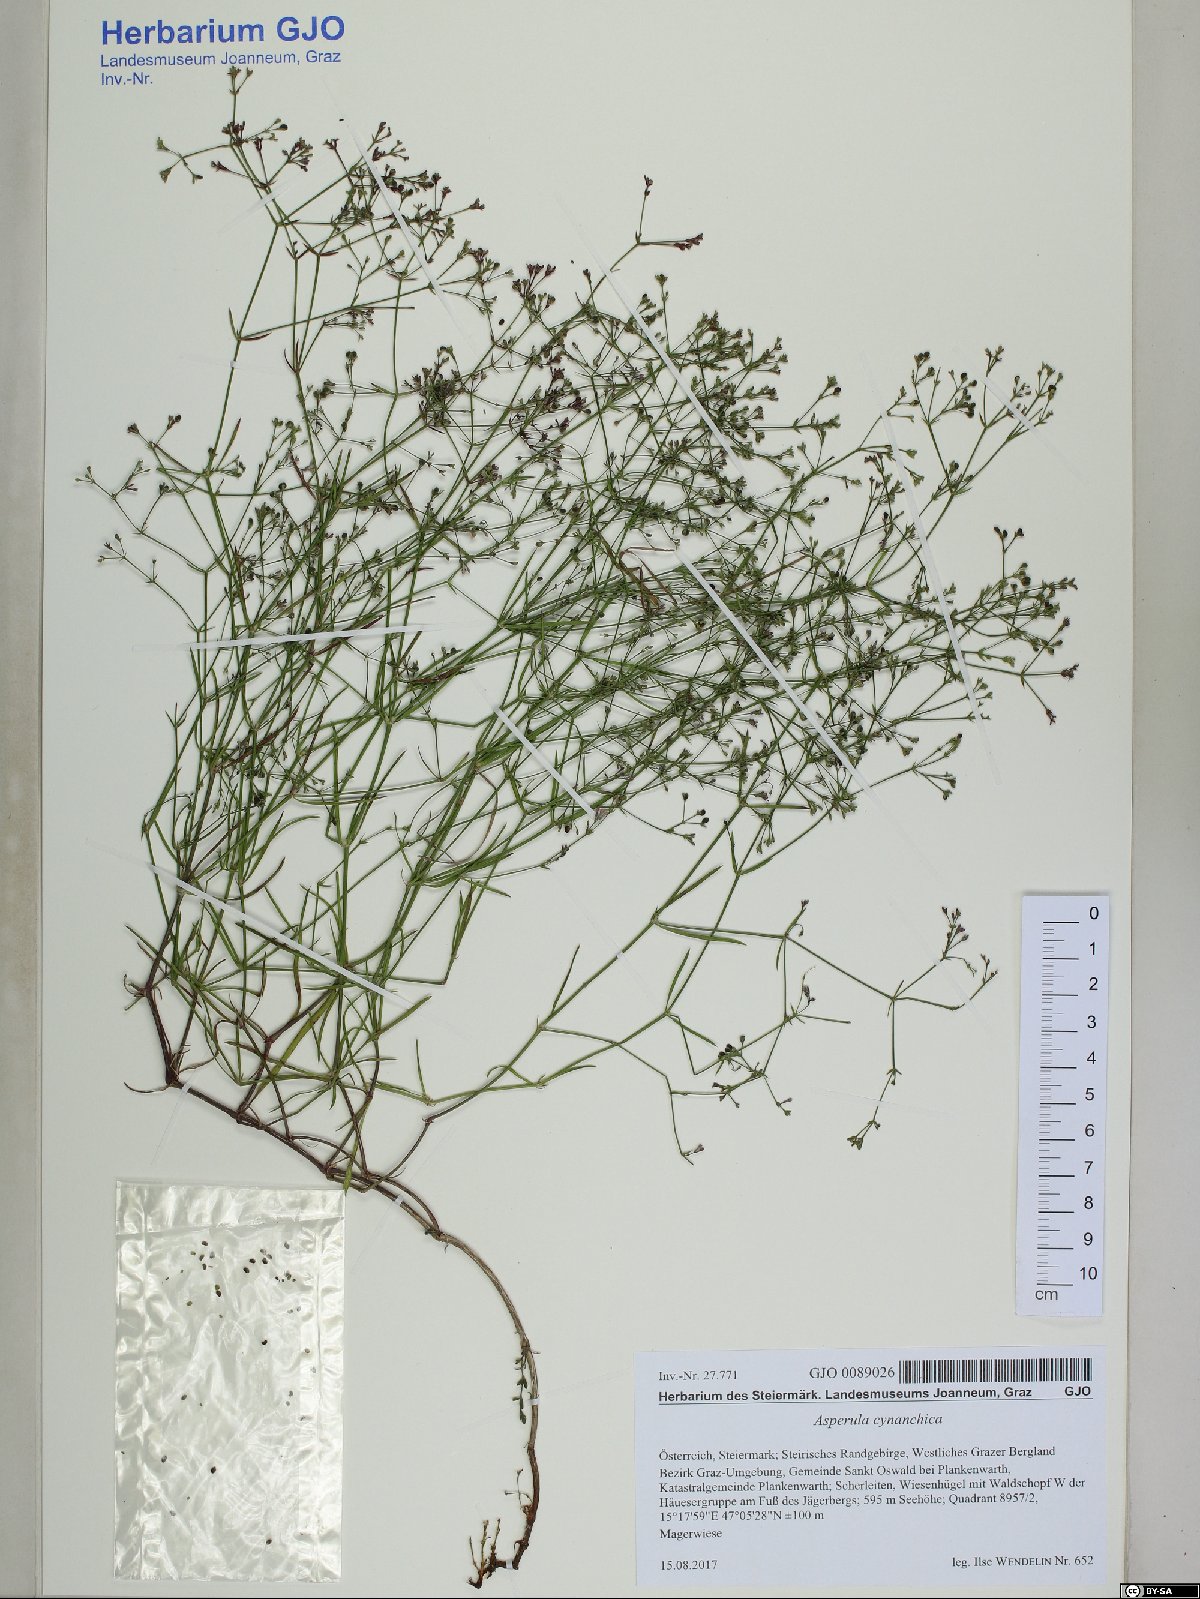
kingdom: Plantae
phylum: Tracheophyta
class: Magnoliopsida
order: Gentianales
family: Rubiaceae
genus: Cynanchica
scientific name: Cynanchica pyrenaica
